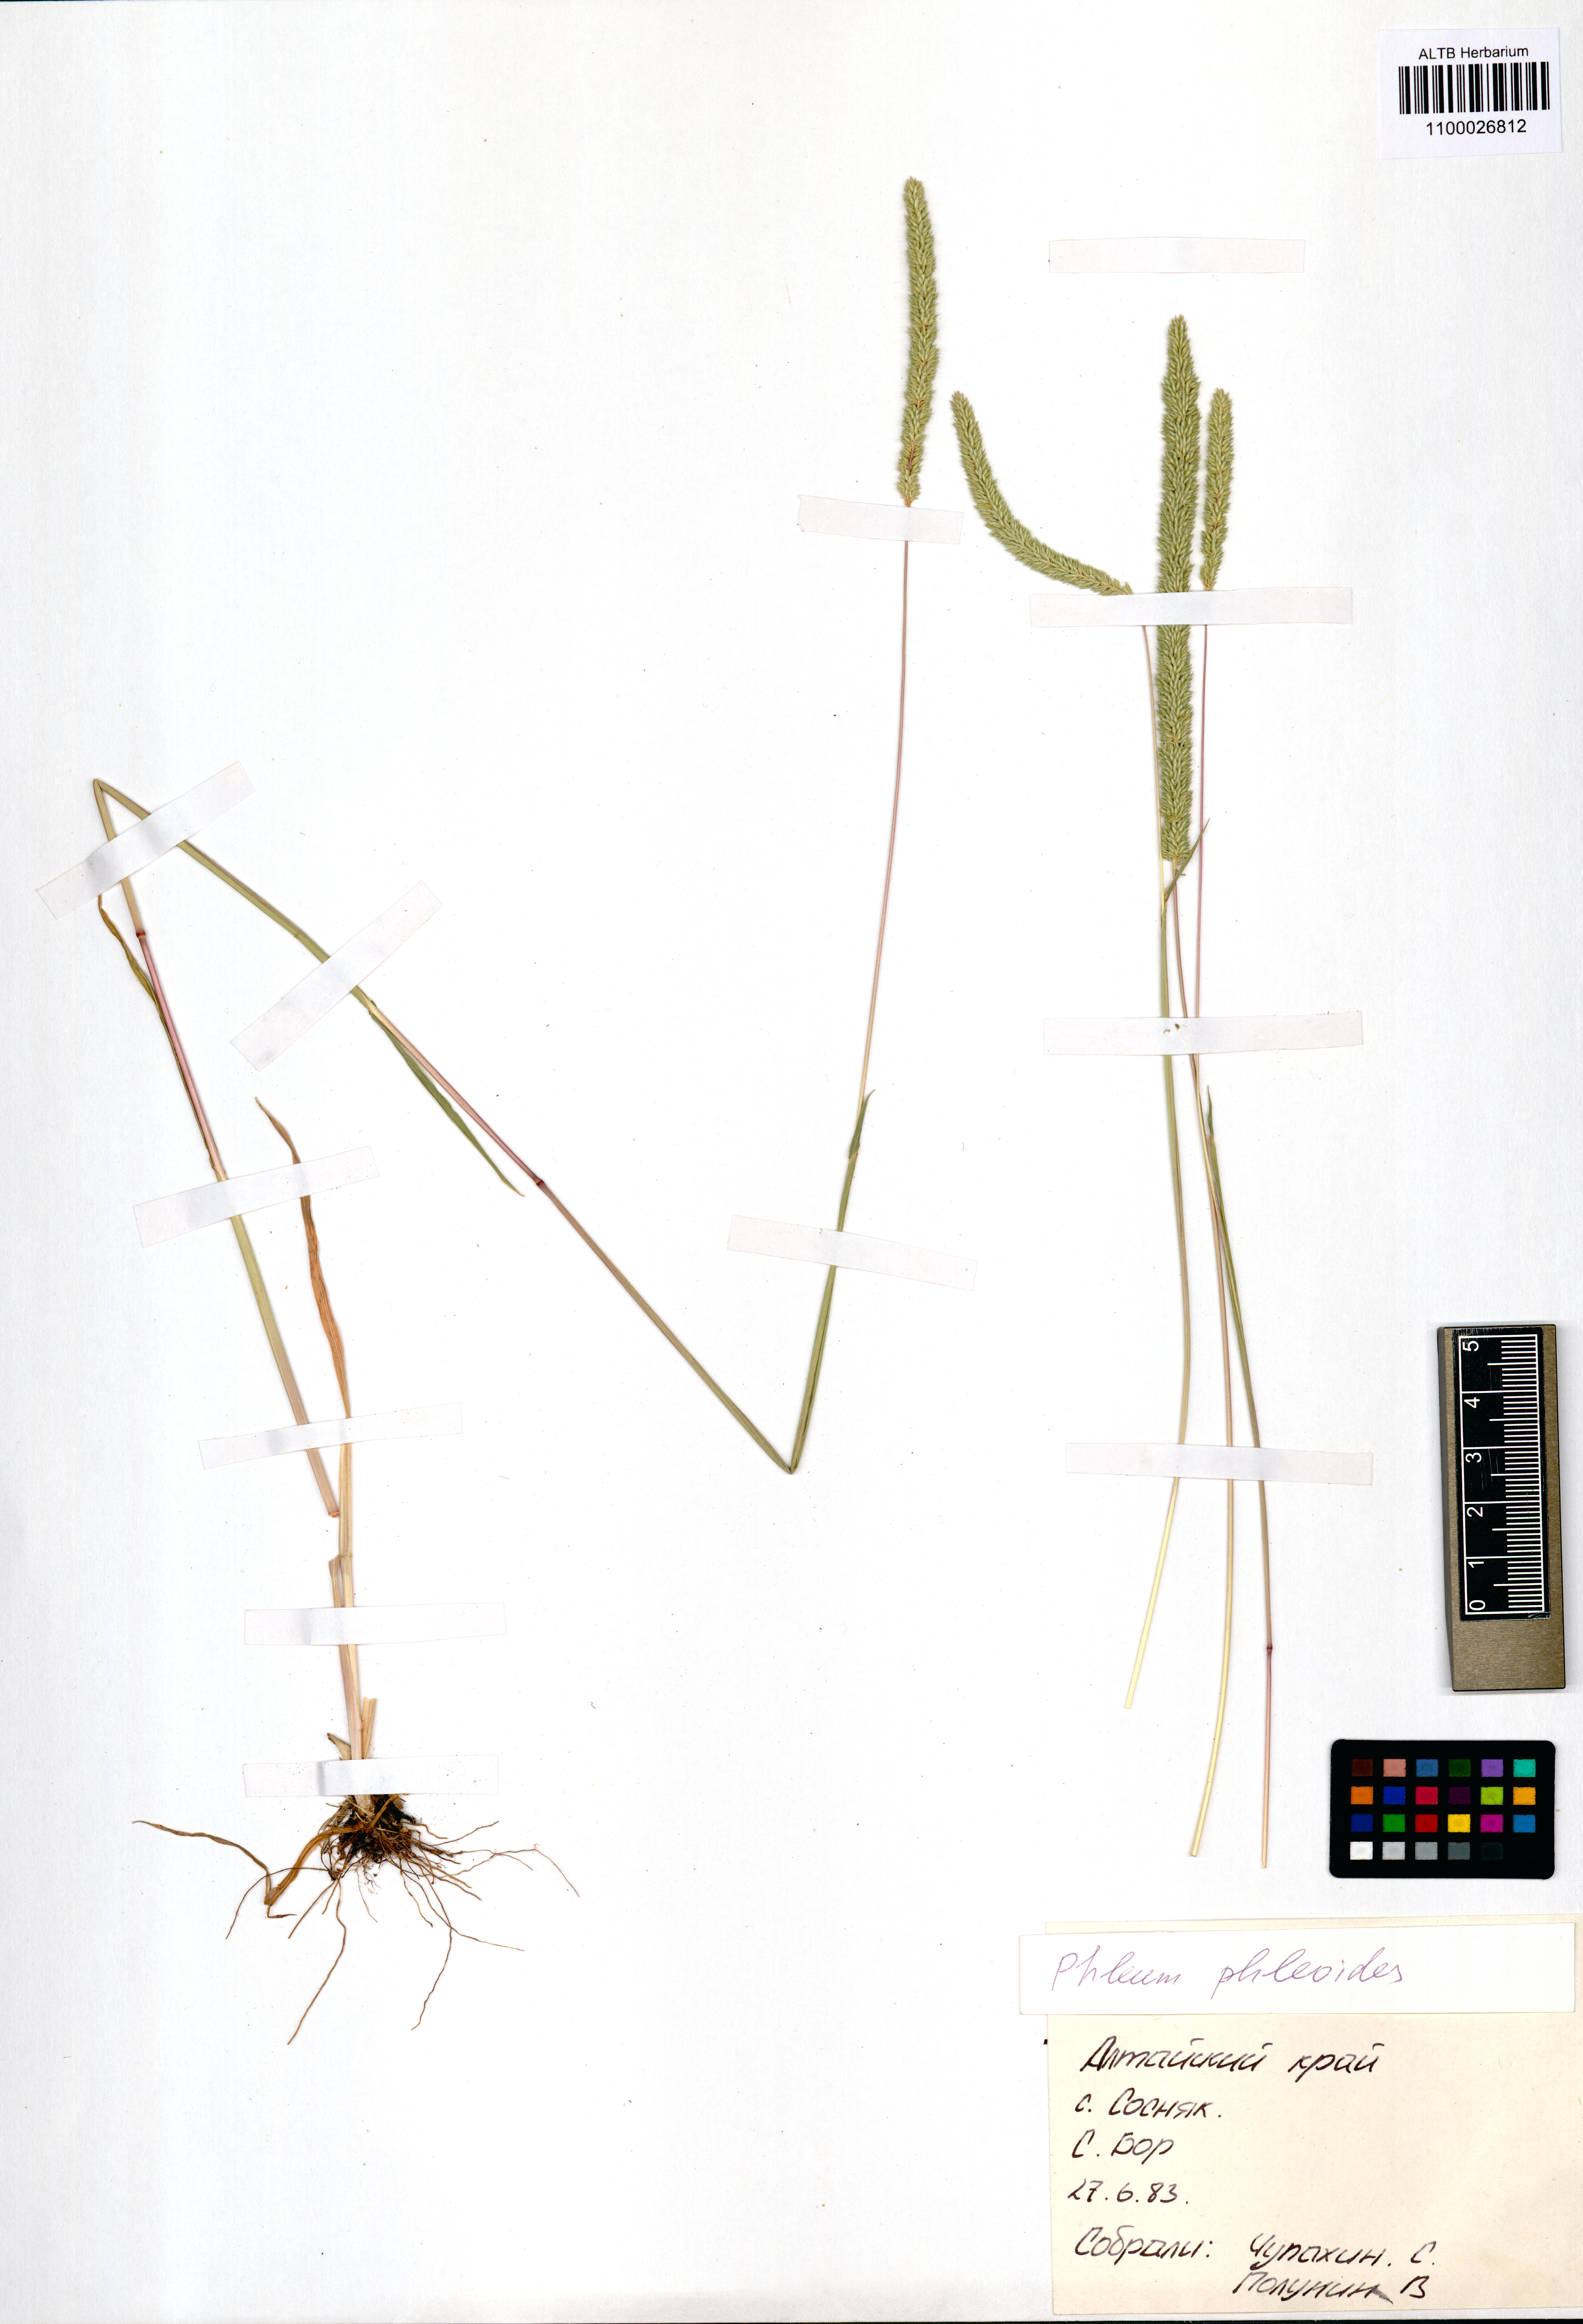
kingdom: Plantae
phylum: Tracheophyta
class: Liliopsida
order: Poales
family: Poaceae
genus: Phleum
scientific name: Phleum phleoides
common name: Purple-stem cat's-tail
